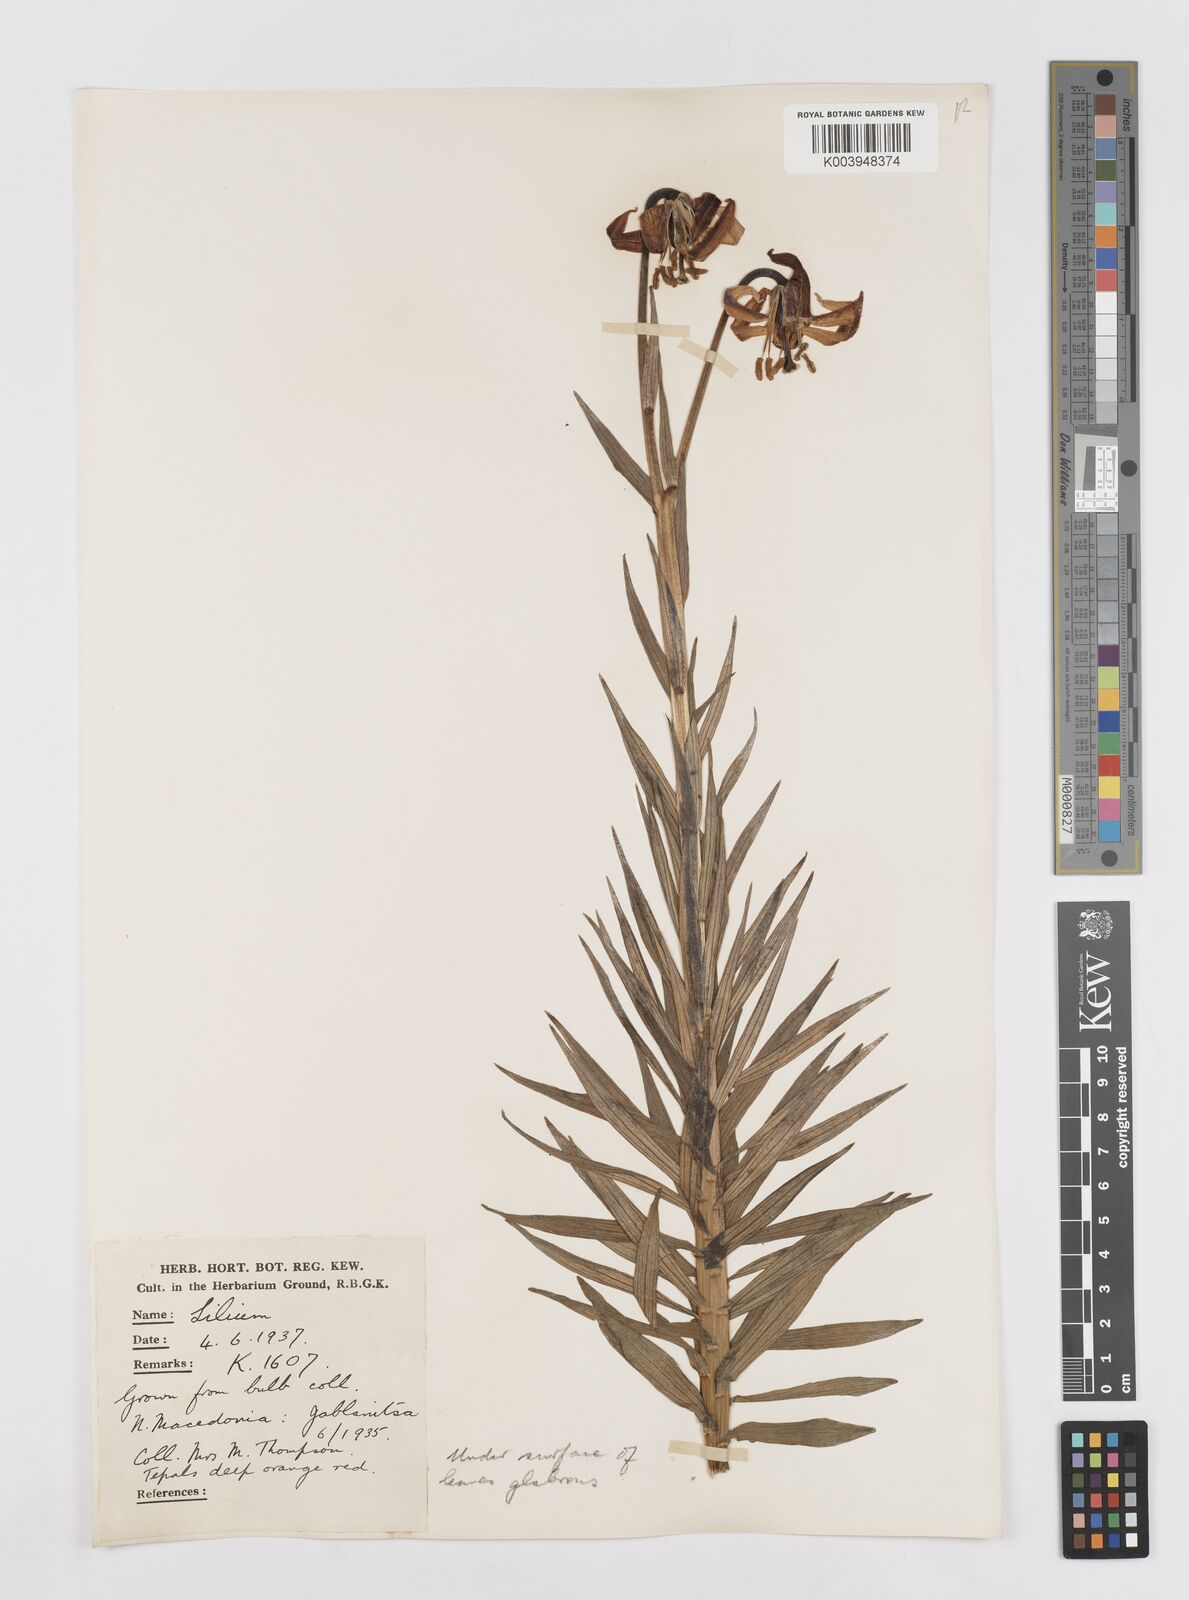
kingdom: Plantae
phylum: Tracheophyta
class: Liliopsida
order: Liliales
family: Liliaceae
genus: Lilium
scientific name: Lilium carniolicum
